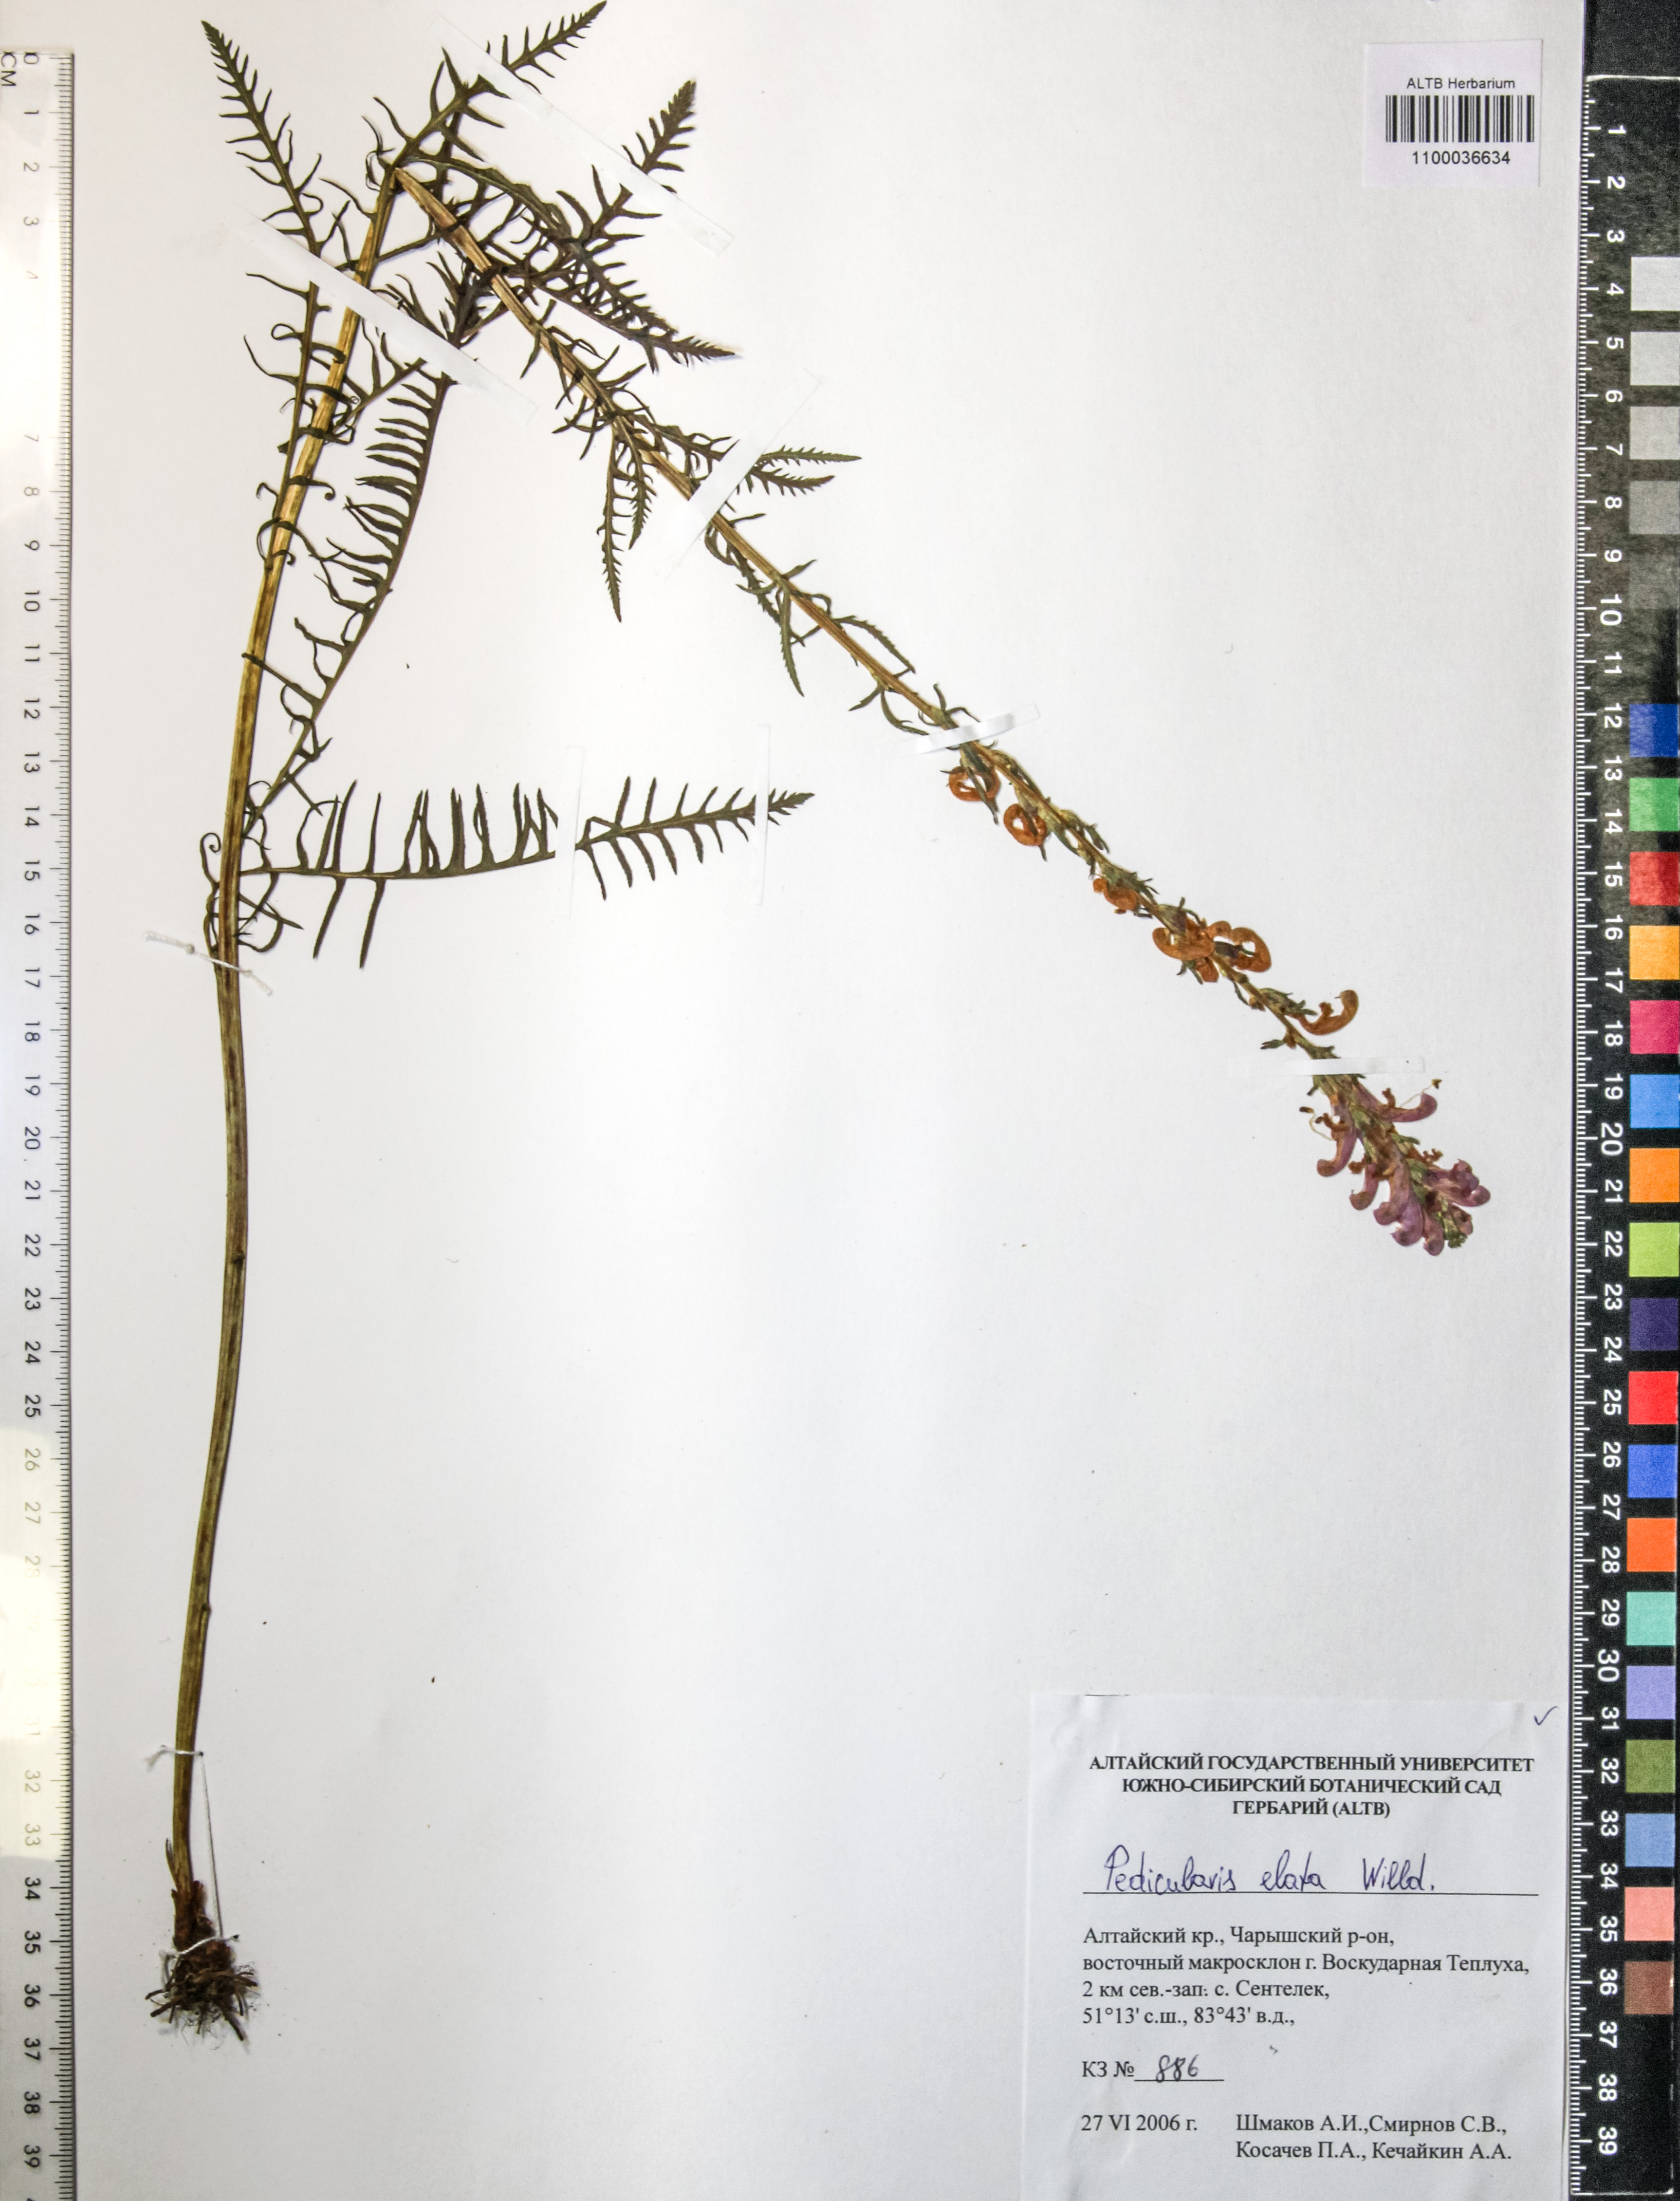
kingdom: Plantae
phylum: Tracheophyta
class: Magnoliopsida
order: Lamiales
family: Orobanchaceae
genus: Pedicularis
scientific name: Pedicularis elata
